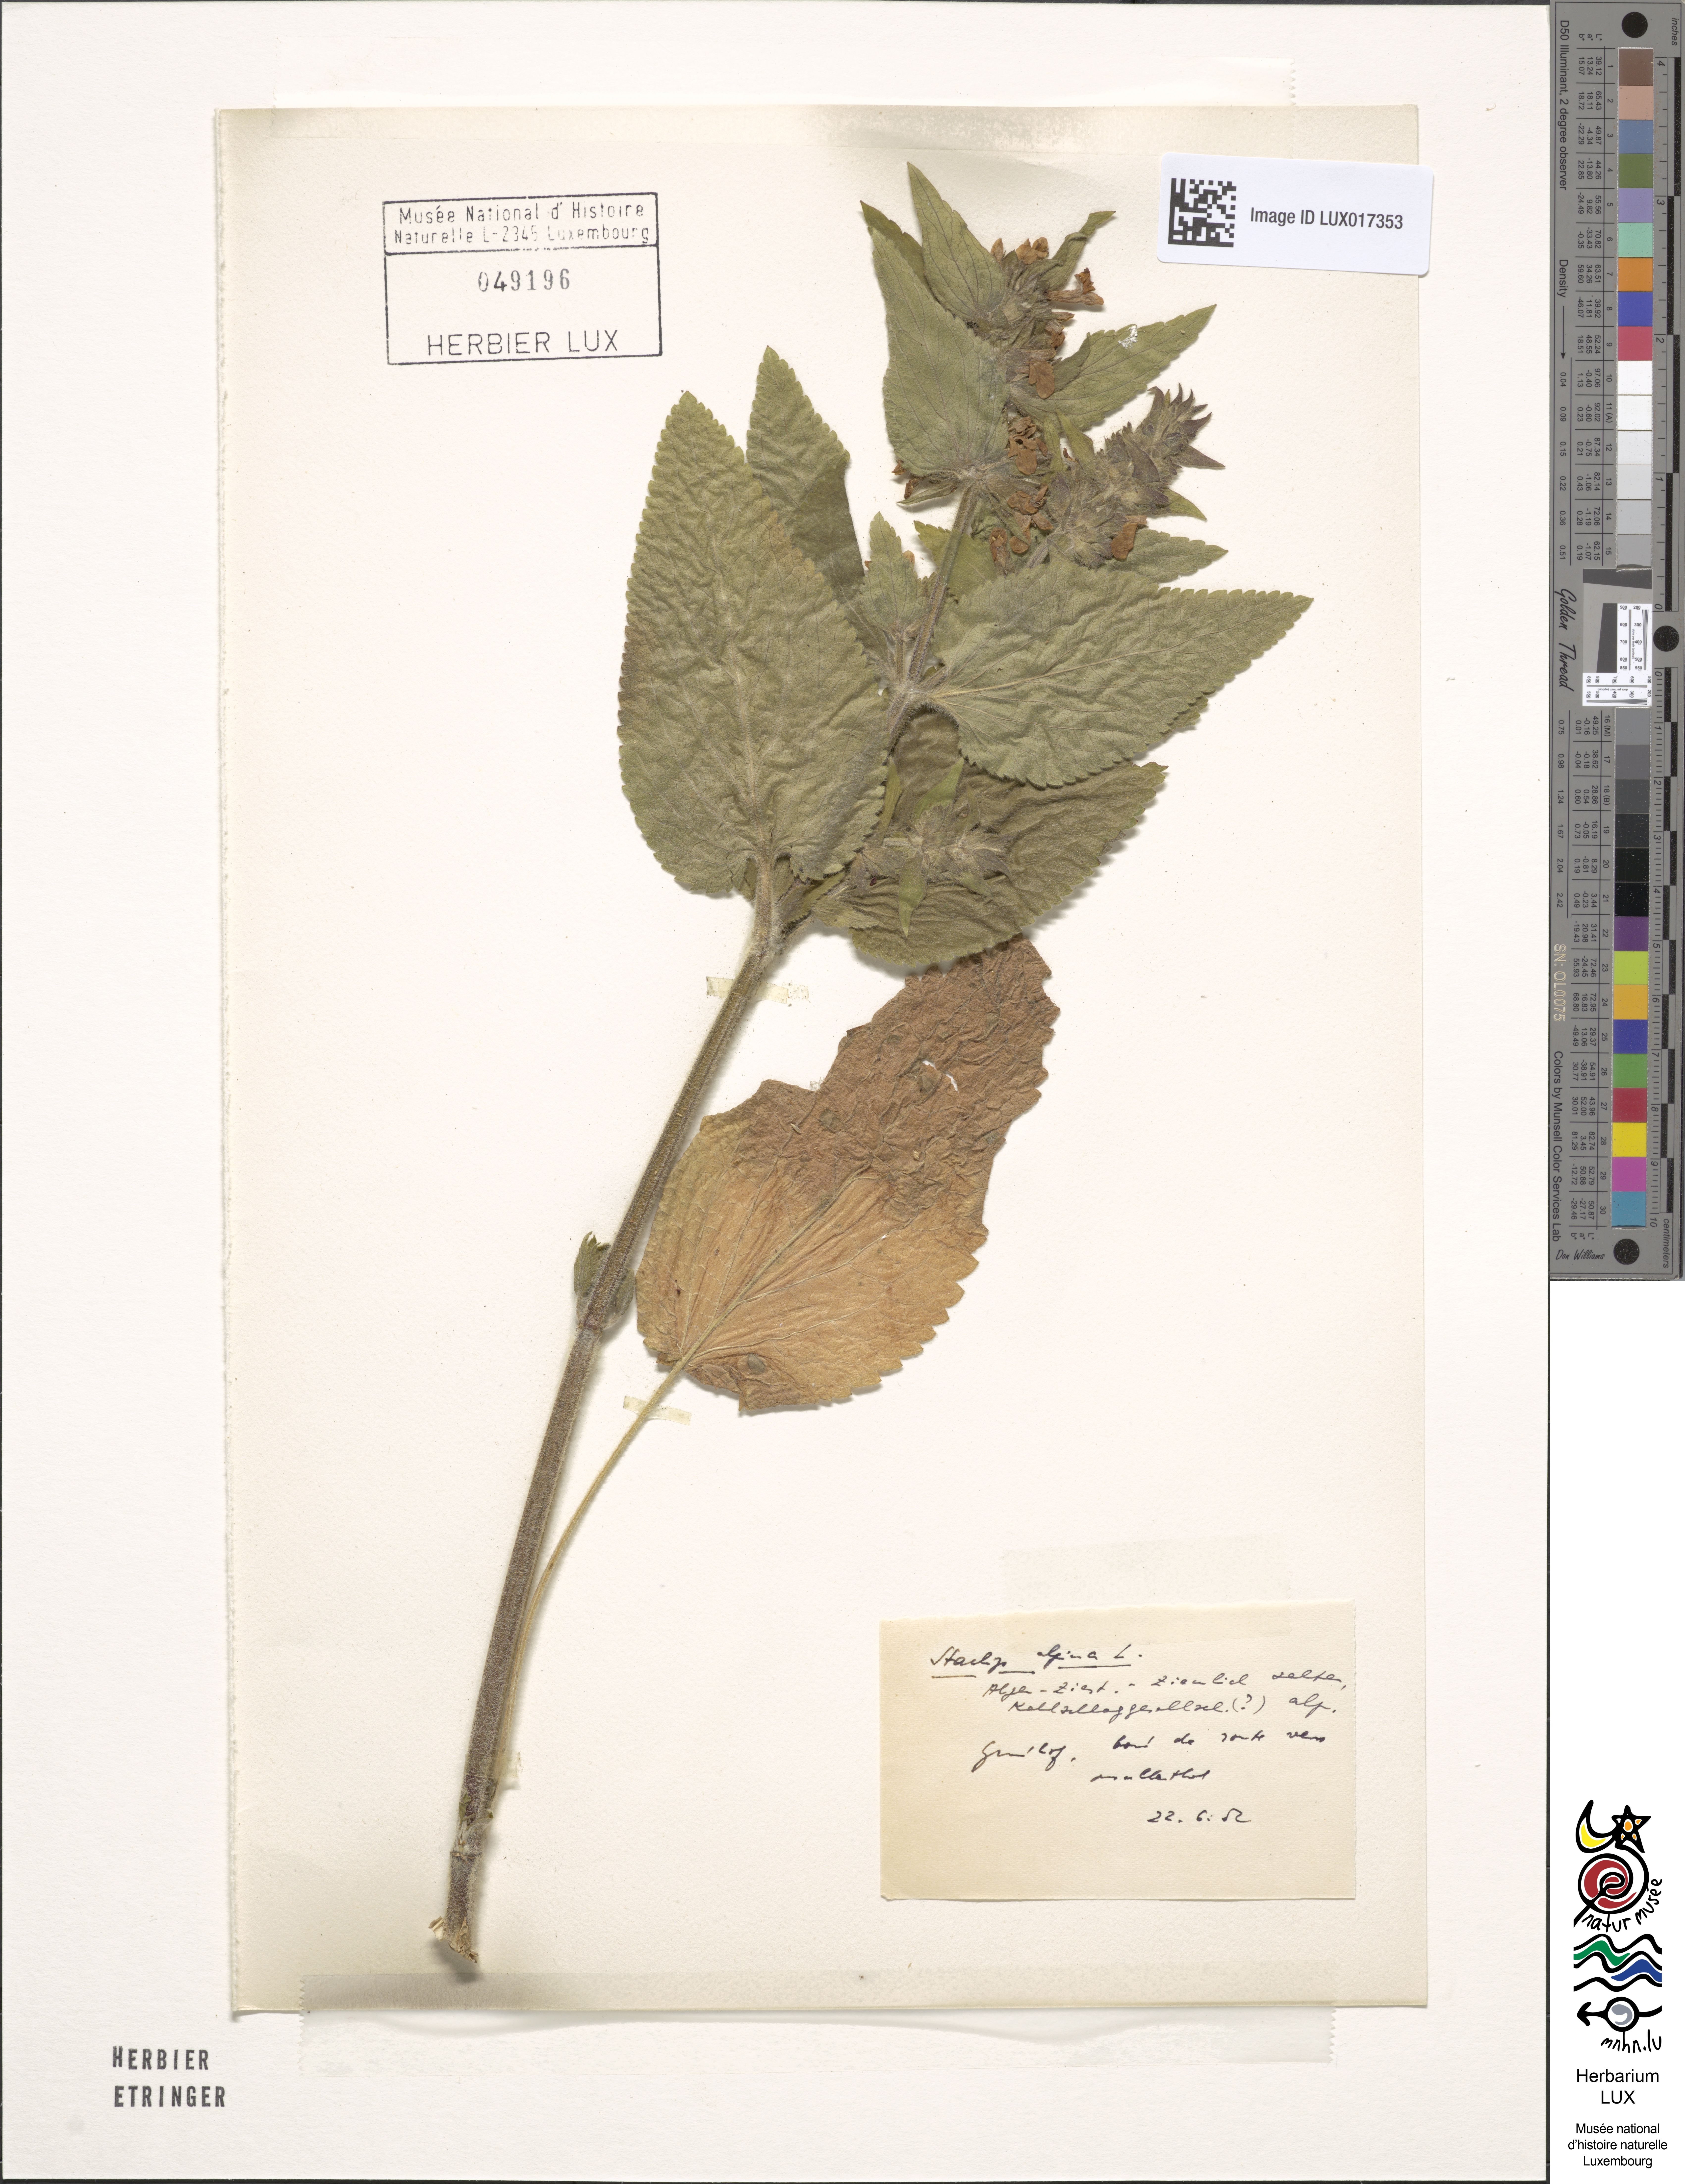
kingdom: Plantae
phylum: Tracheophyta
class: Magnoliopsida
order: Lamiales
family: Lamiaceae
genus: Stachys
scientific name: Stachys alpina
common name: Limestone woundwort
